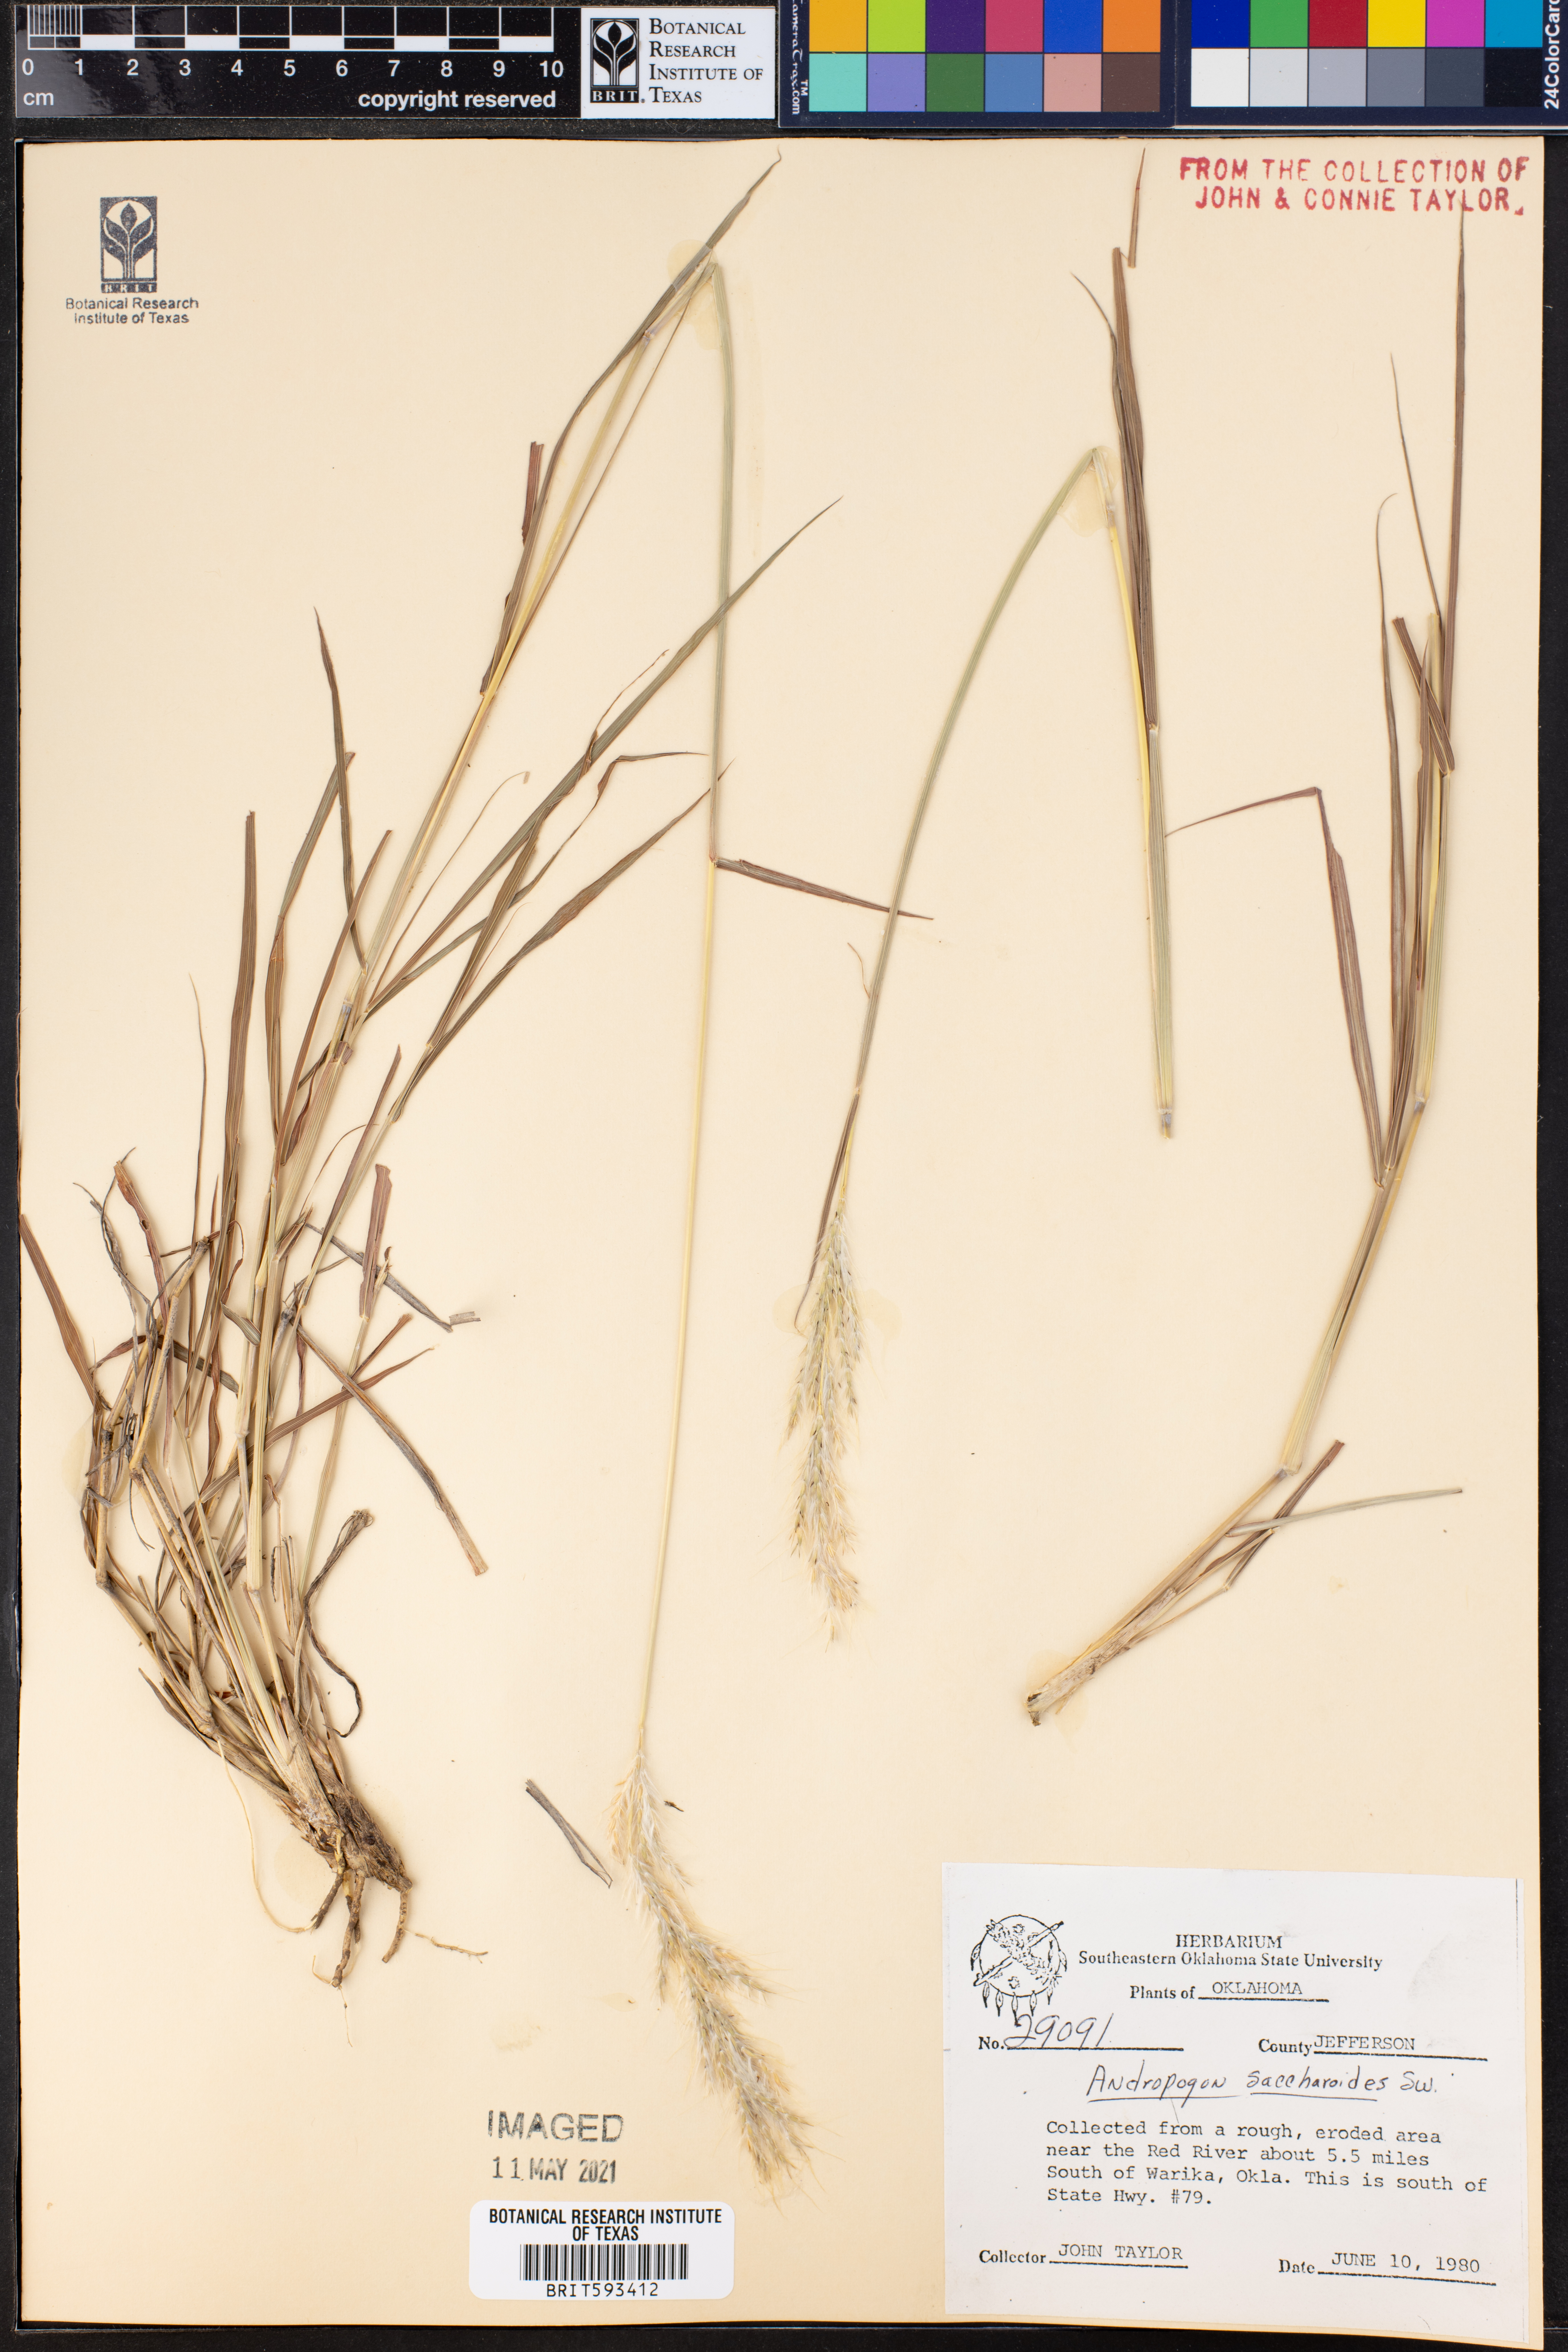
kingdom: Plantae
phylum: Tracheophyta
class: Liliopsida
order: Poales
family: Poaceae
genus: Bothriochloa
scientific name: Bothriochloa saccharoides
